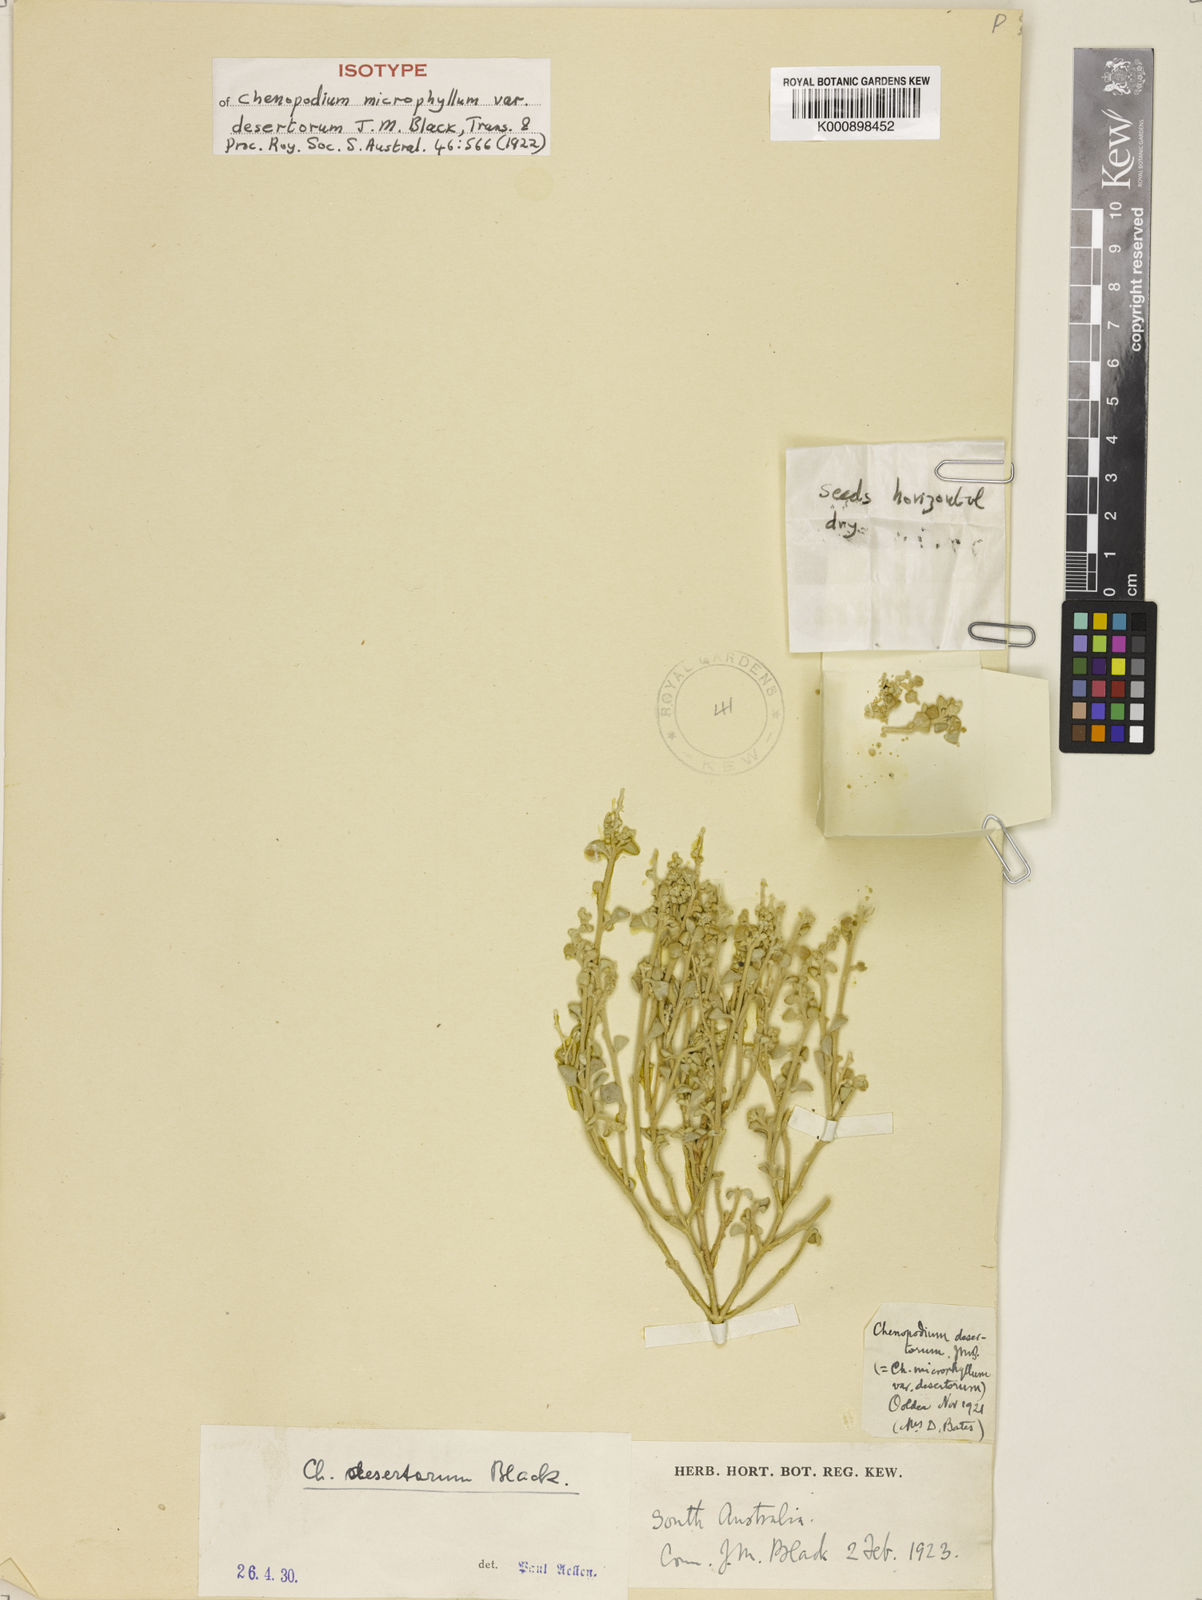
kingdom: Plantae
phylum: Tracheophyta
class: Magnoliopsida
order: Caryophyllales
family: Amaranthaceae
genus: Chenopodium
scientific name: Chenopodium desertorum
